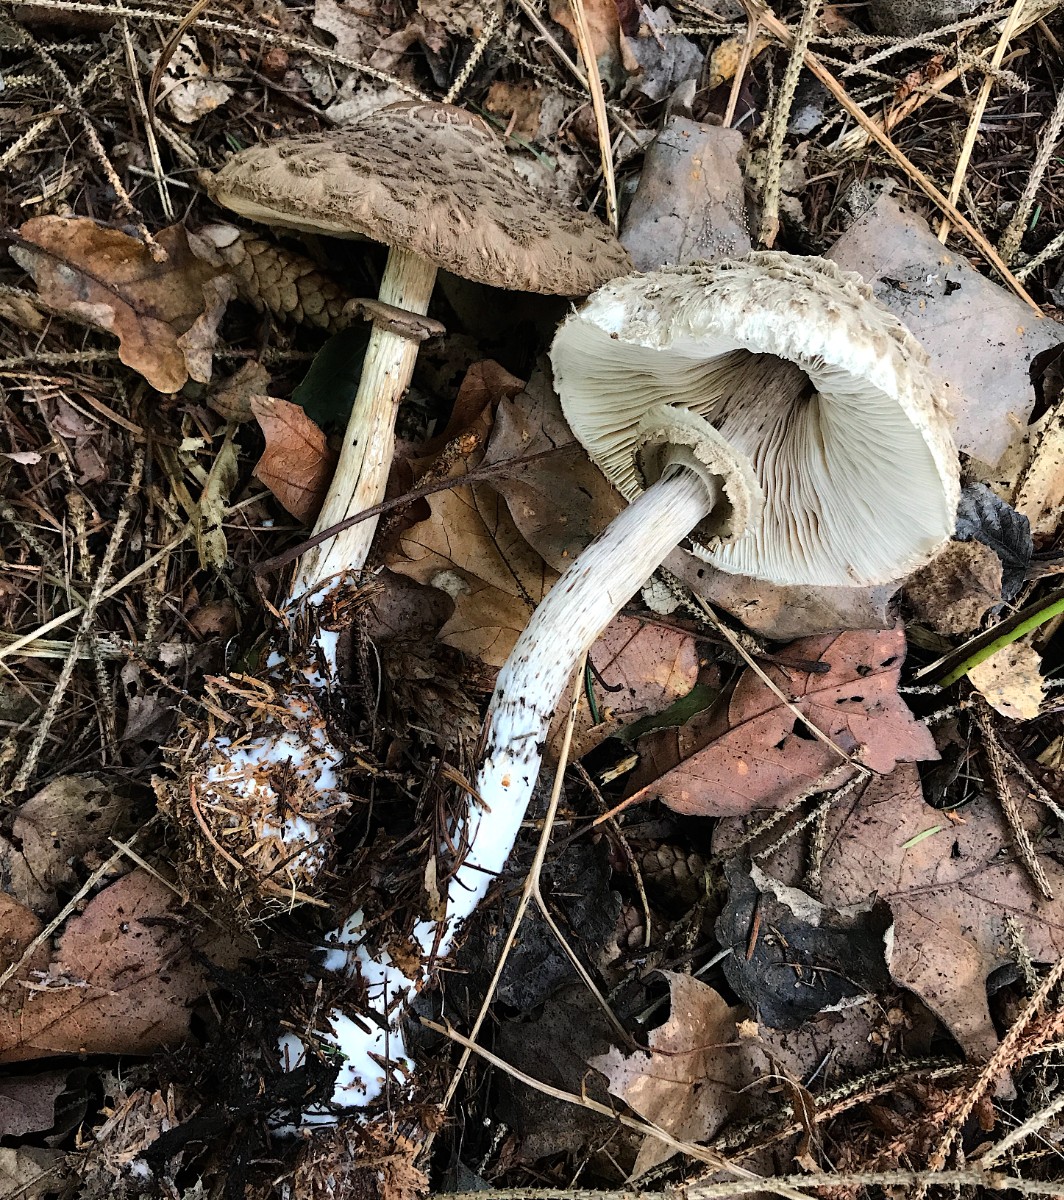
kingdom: Fungi
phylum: Basidiomycota
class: Agaricomycetes
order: Agaricales
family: Agaricaceae
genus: Chlorophyllum
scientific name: Chlorophyllum olivieri
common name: almindelig rabarberhat
